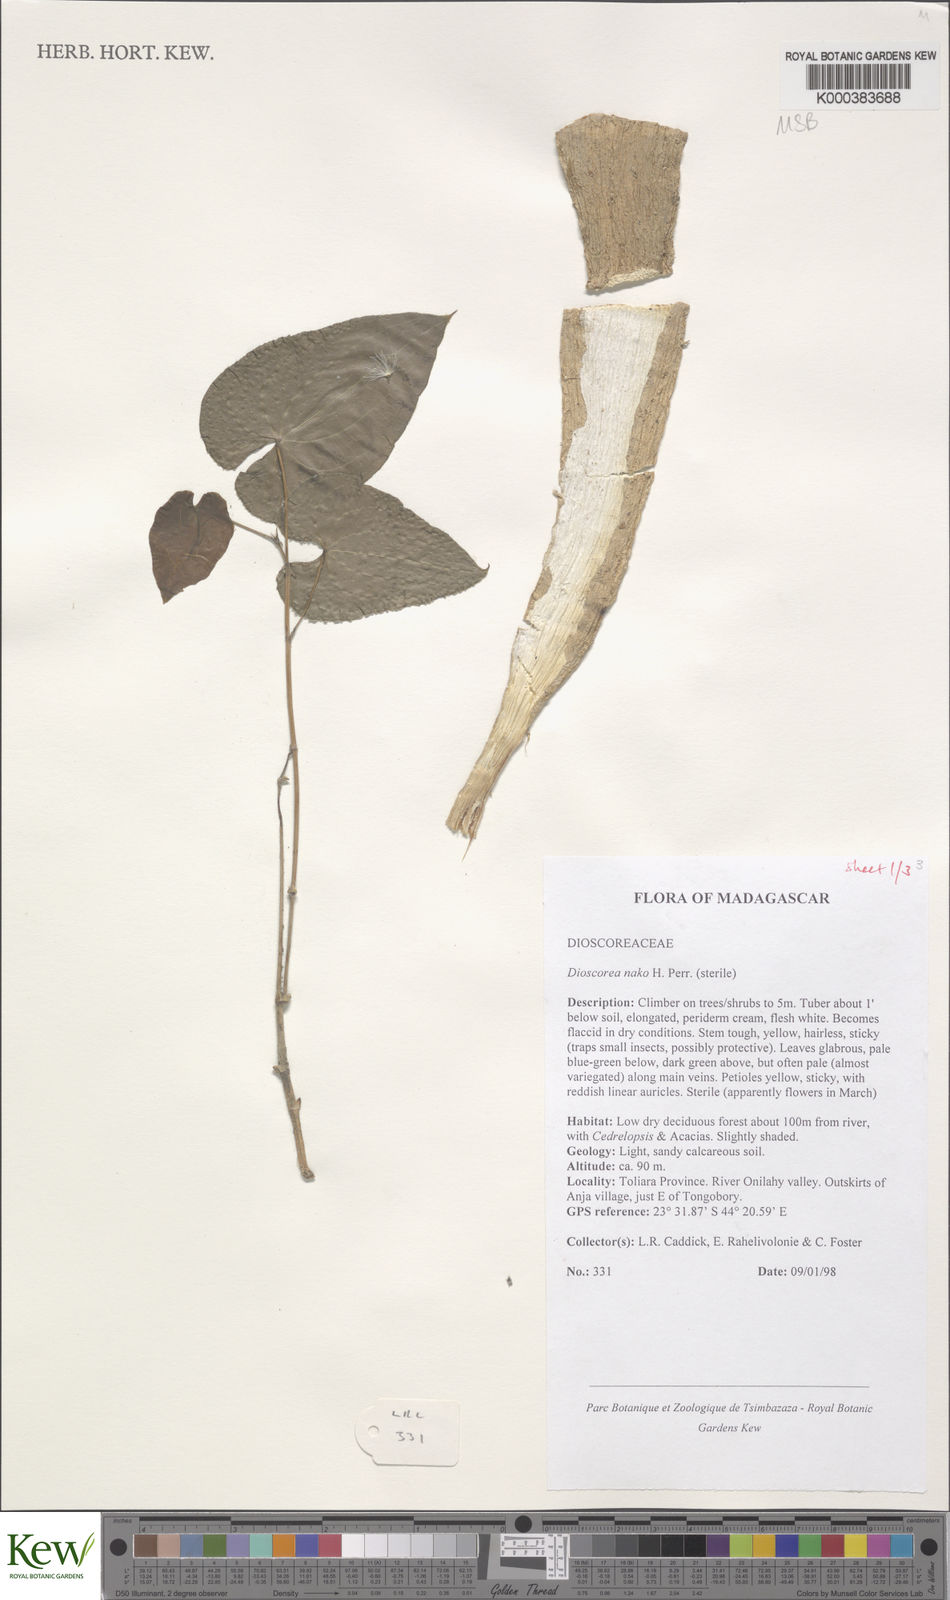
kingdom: Plantae
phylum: Tracheophyta
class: Liliopsida
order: Dioscoreales
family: Dioscoreaceae
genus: Dioscorea
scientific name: Dioscorea
